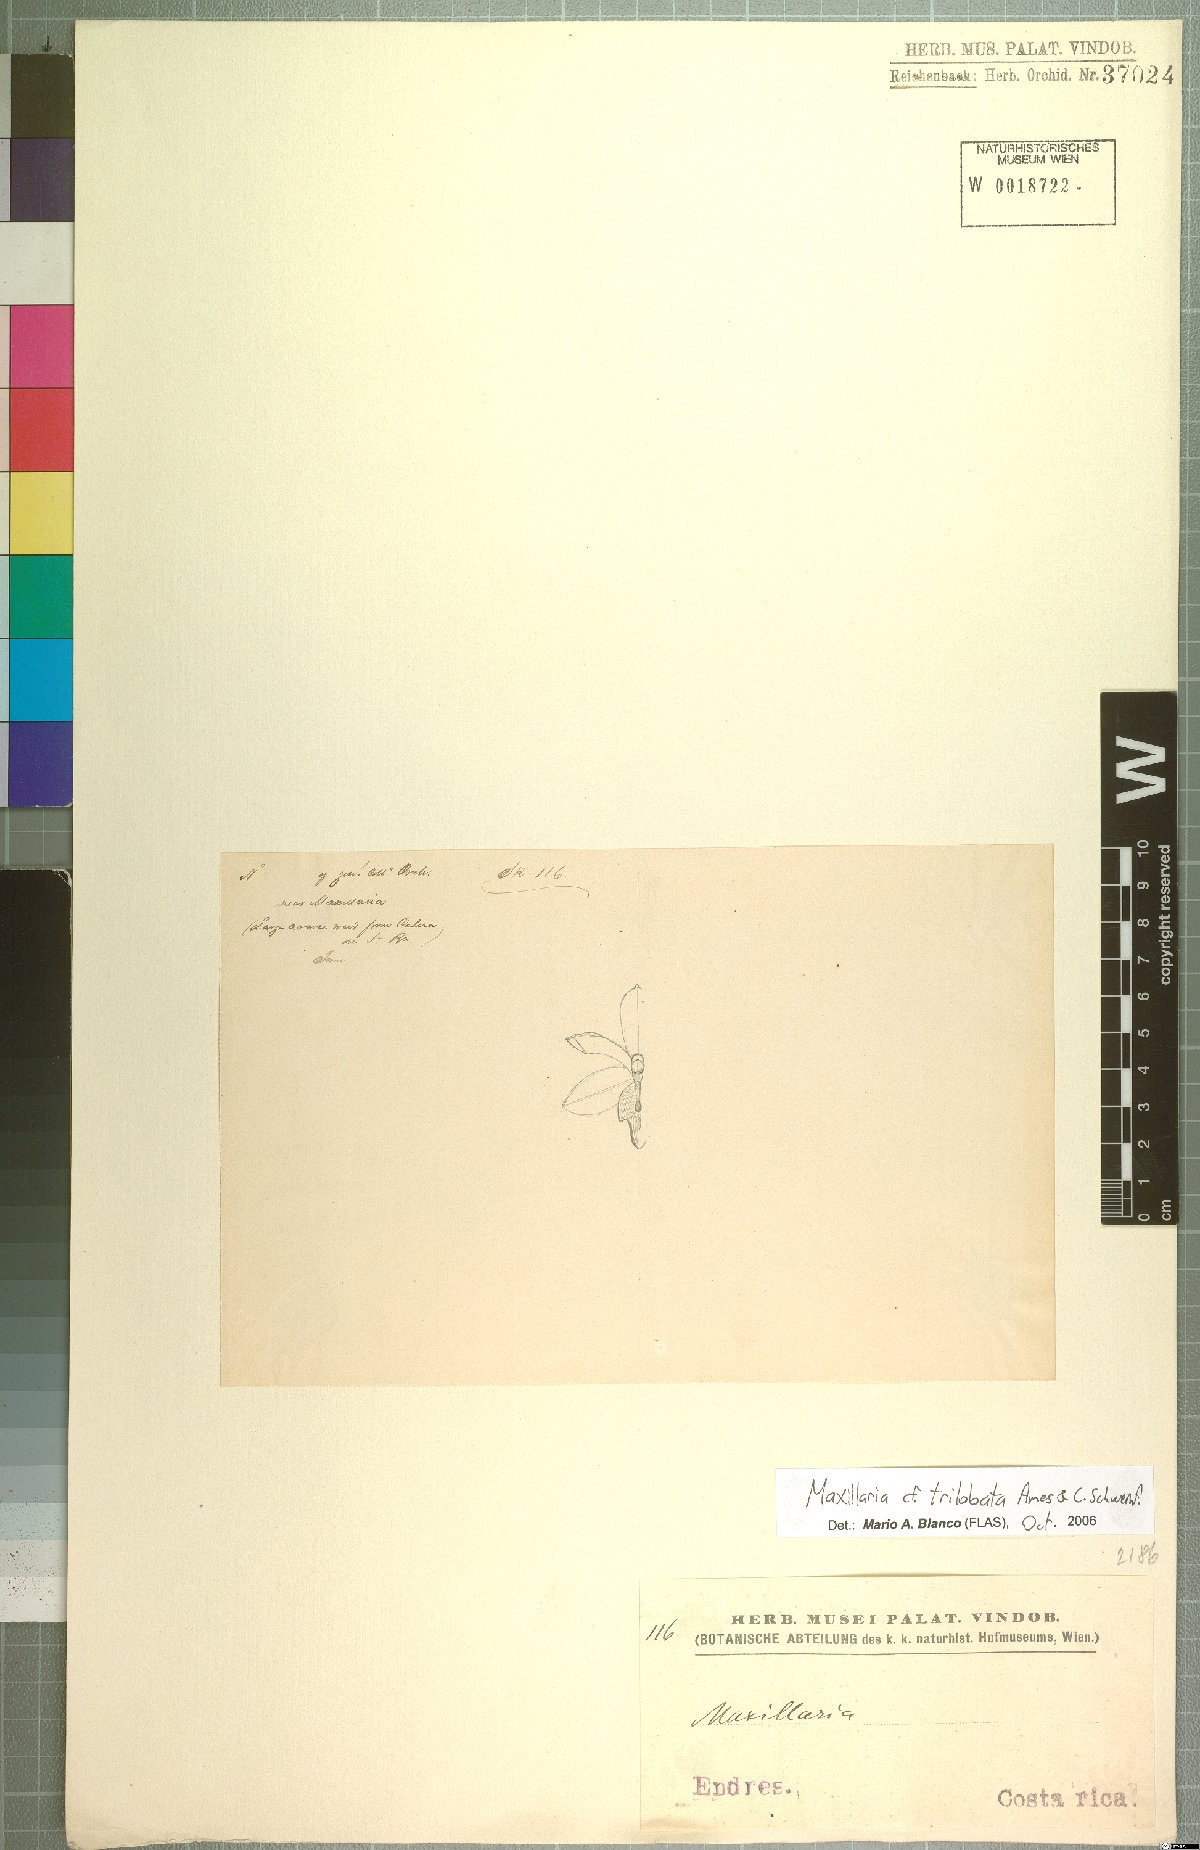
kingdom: Plantae
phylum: Tracheophyta
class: Liliopsida
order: Asparagales
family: Orchidaceae
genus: Maxillaria
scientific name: Maxillaria trilobata
